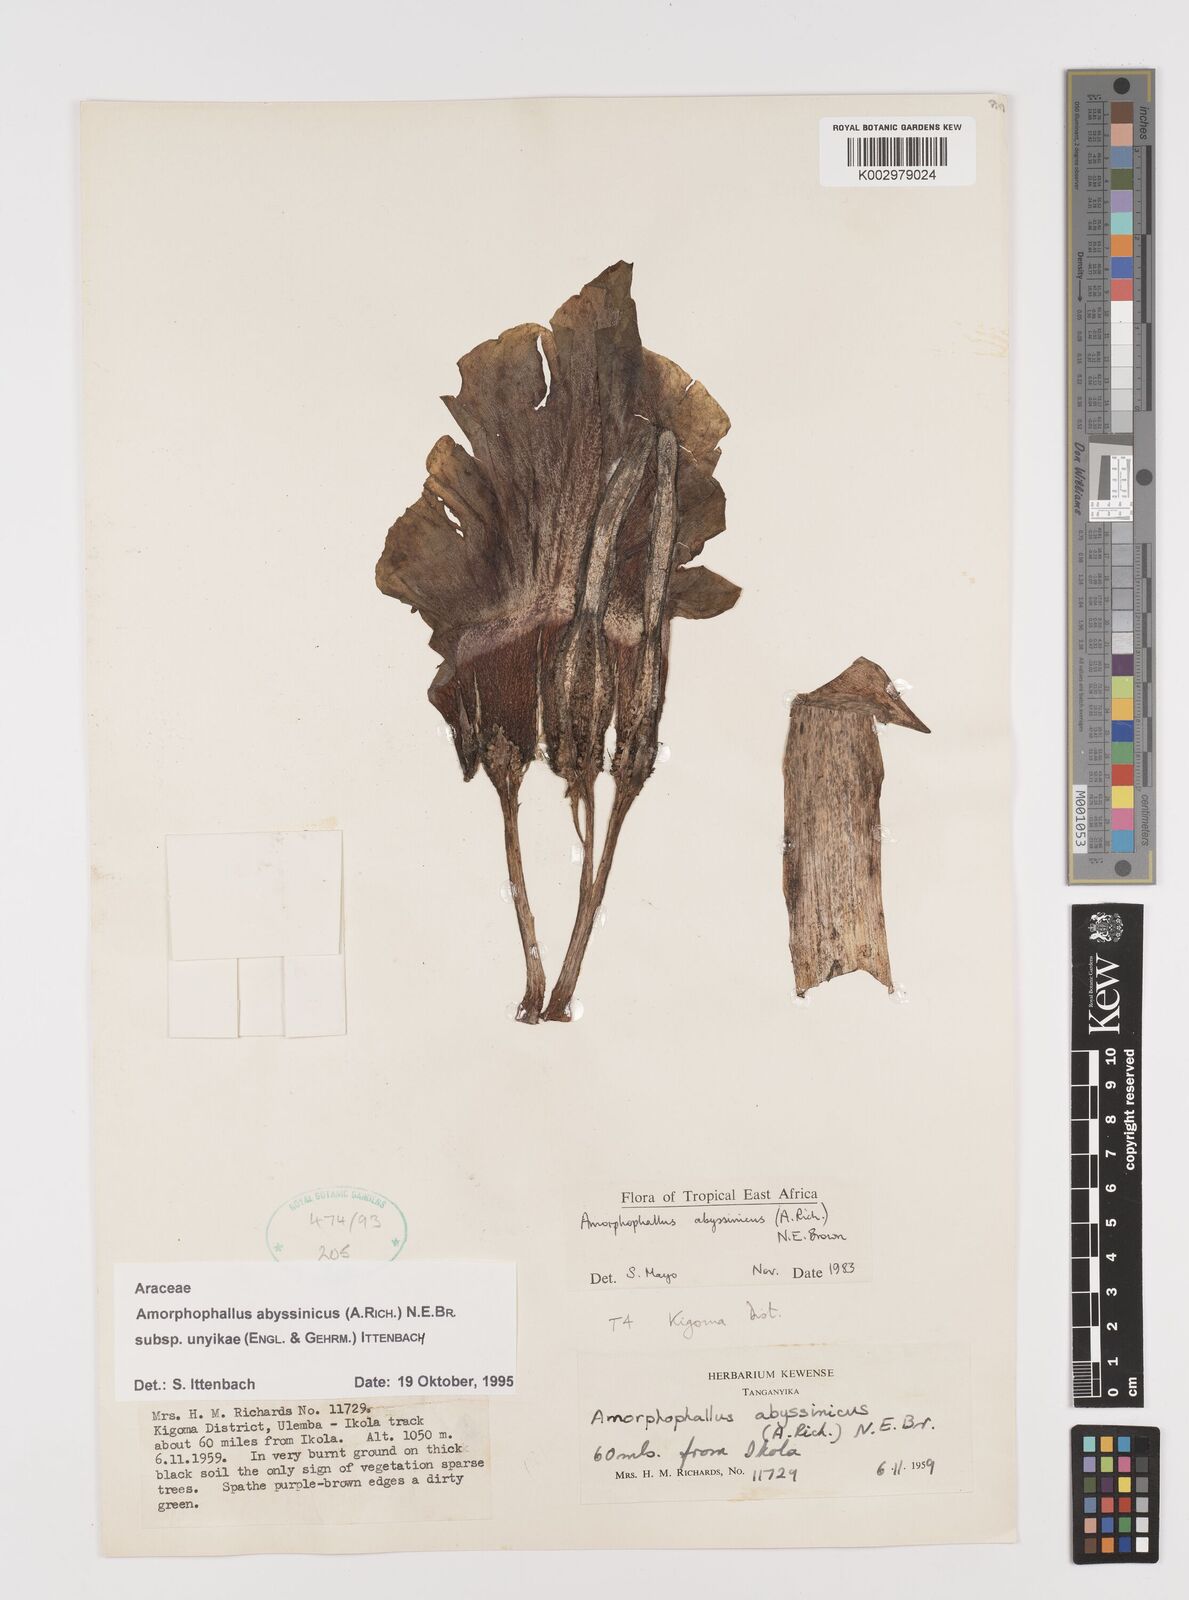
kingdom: Plantae
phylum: Tracheophyta
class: Liliopsida
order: Alismatales
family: Araceae
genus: Amorphophallus
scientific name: Amorphophallus abyssinicus
